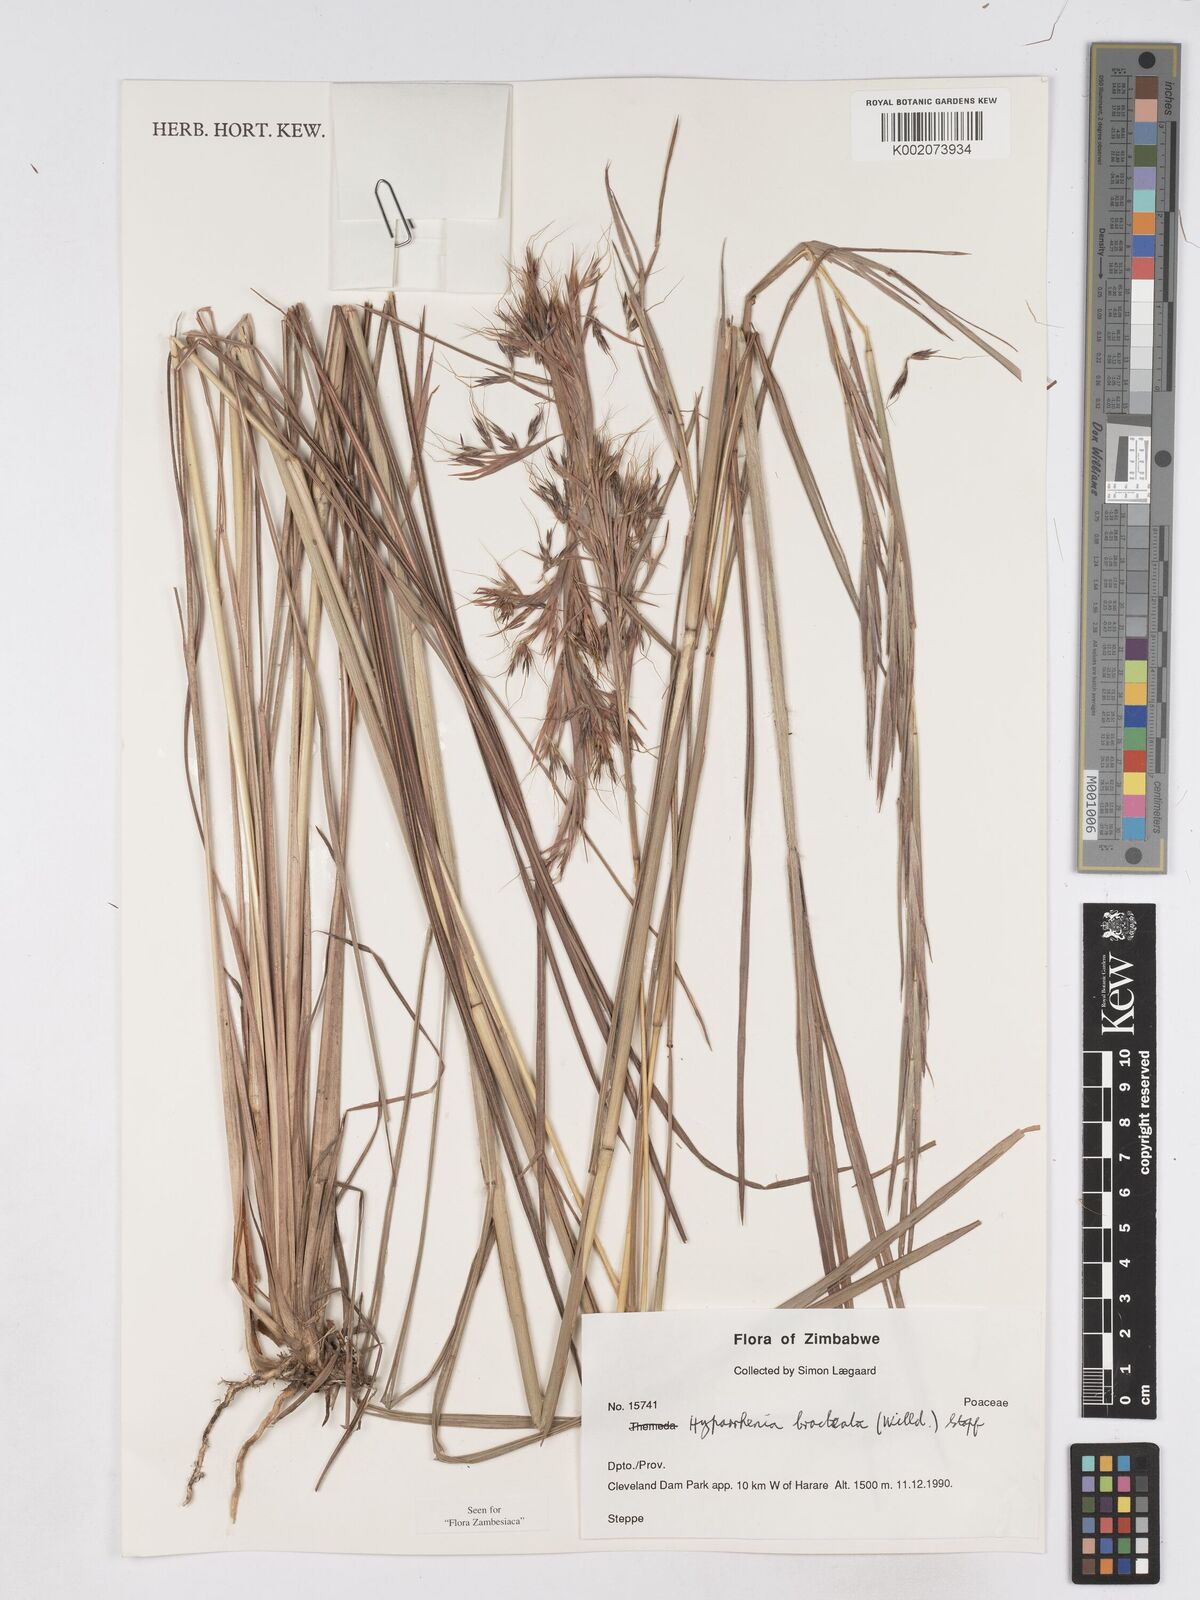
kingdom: Plantae
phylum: Tracheophyta
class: Liliopsida
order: Poales
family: Poaceae
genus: Hyparrhenia
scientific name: Hyparrhenia bracteata
